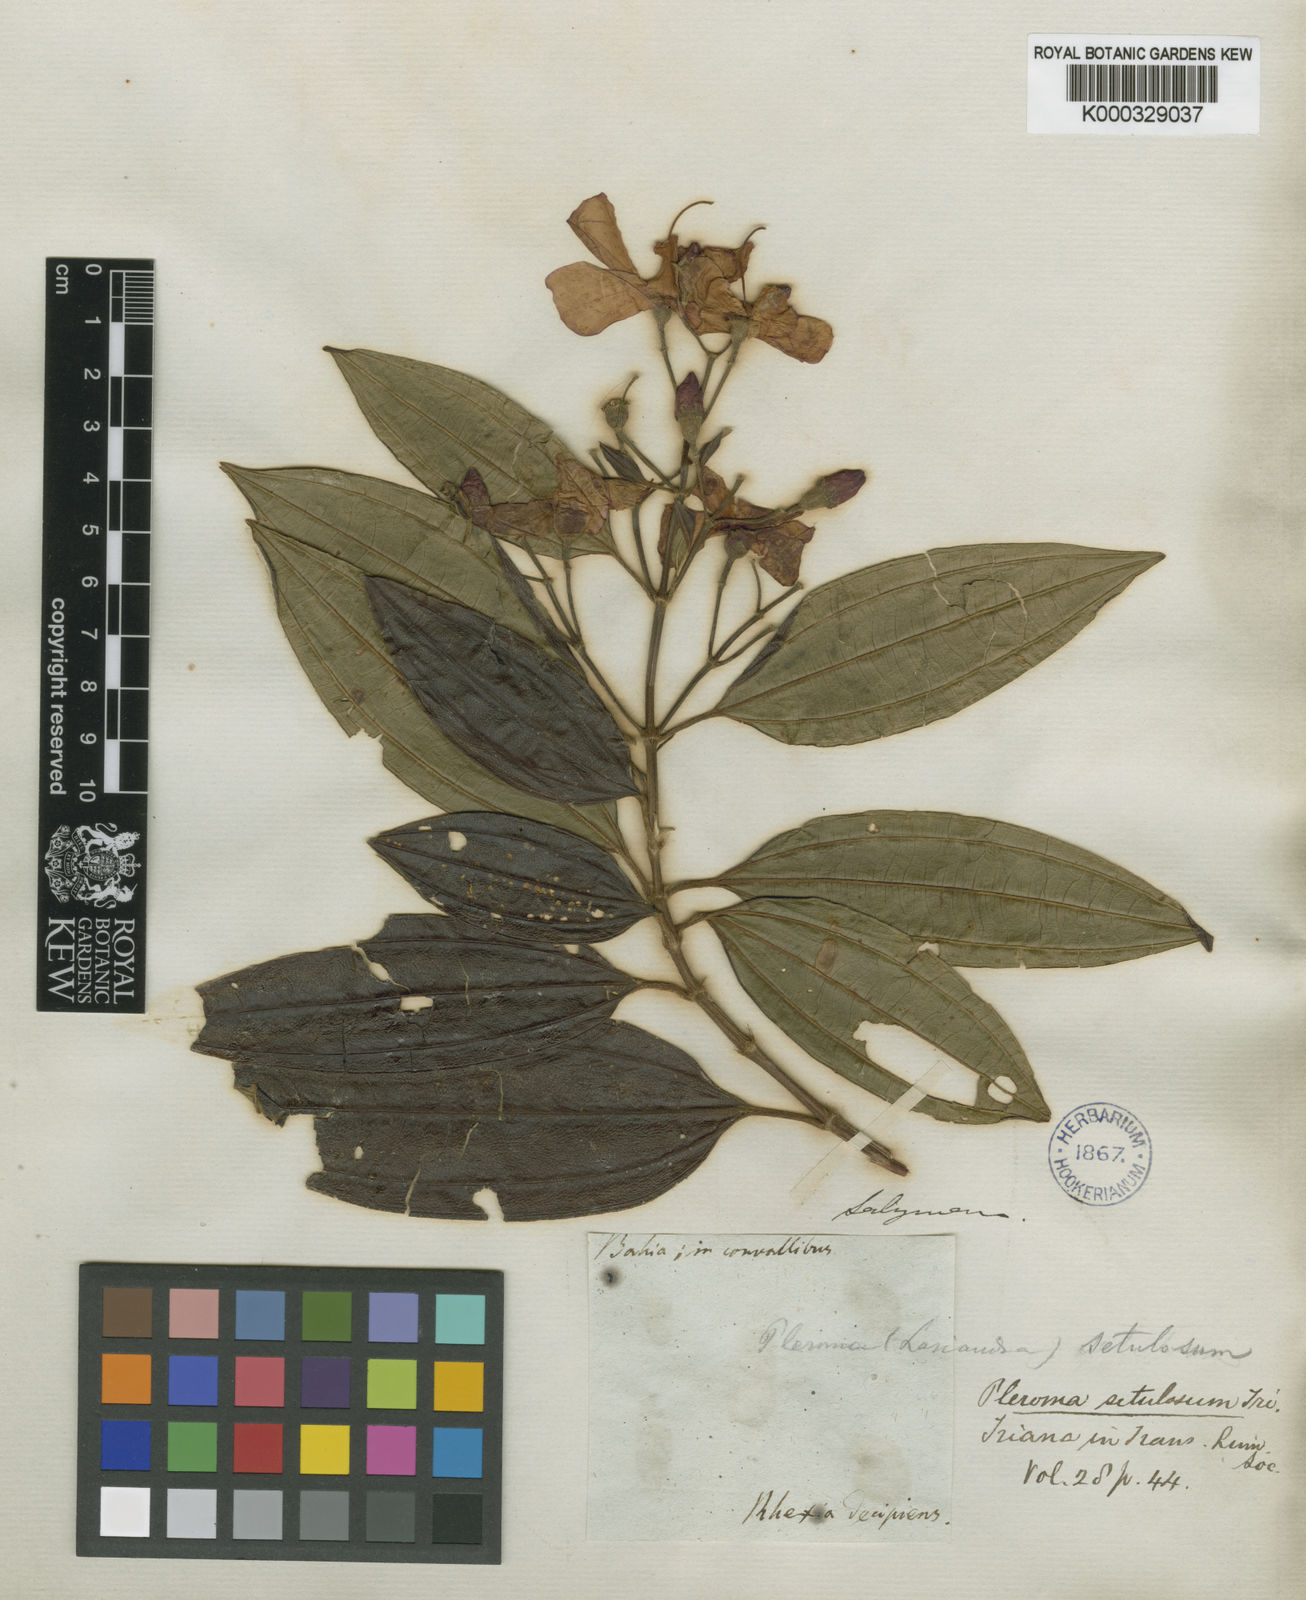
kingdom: Plantae
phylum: Tracheophyta
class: Magnoliopsida
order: Myrtales
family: Melastomataceae
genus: Pleroma
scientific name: Pleroma candolleanum
